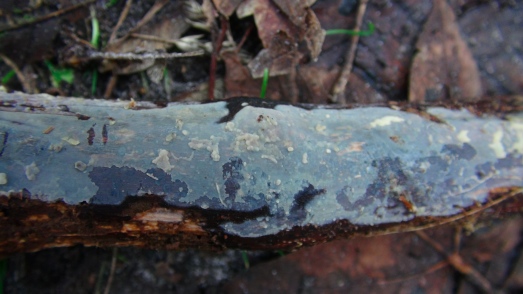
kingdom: Fungi
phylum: Basidiomycota
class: Agaricomycetes
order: Agaricales
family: Radulomycetaceae
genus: Radulomyces
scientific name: Radulomyces confluens
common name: glat naftalinskind
